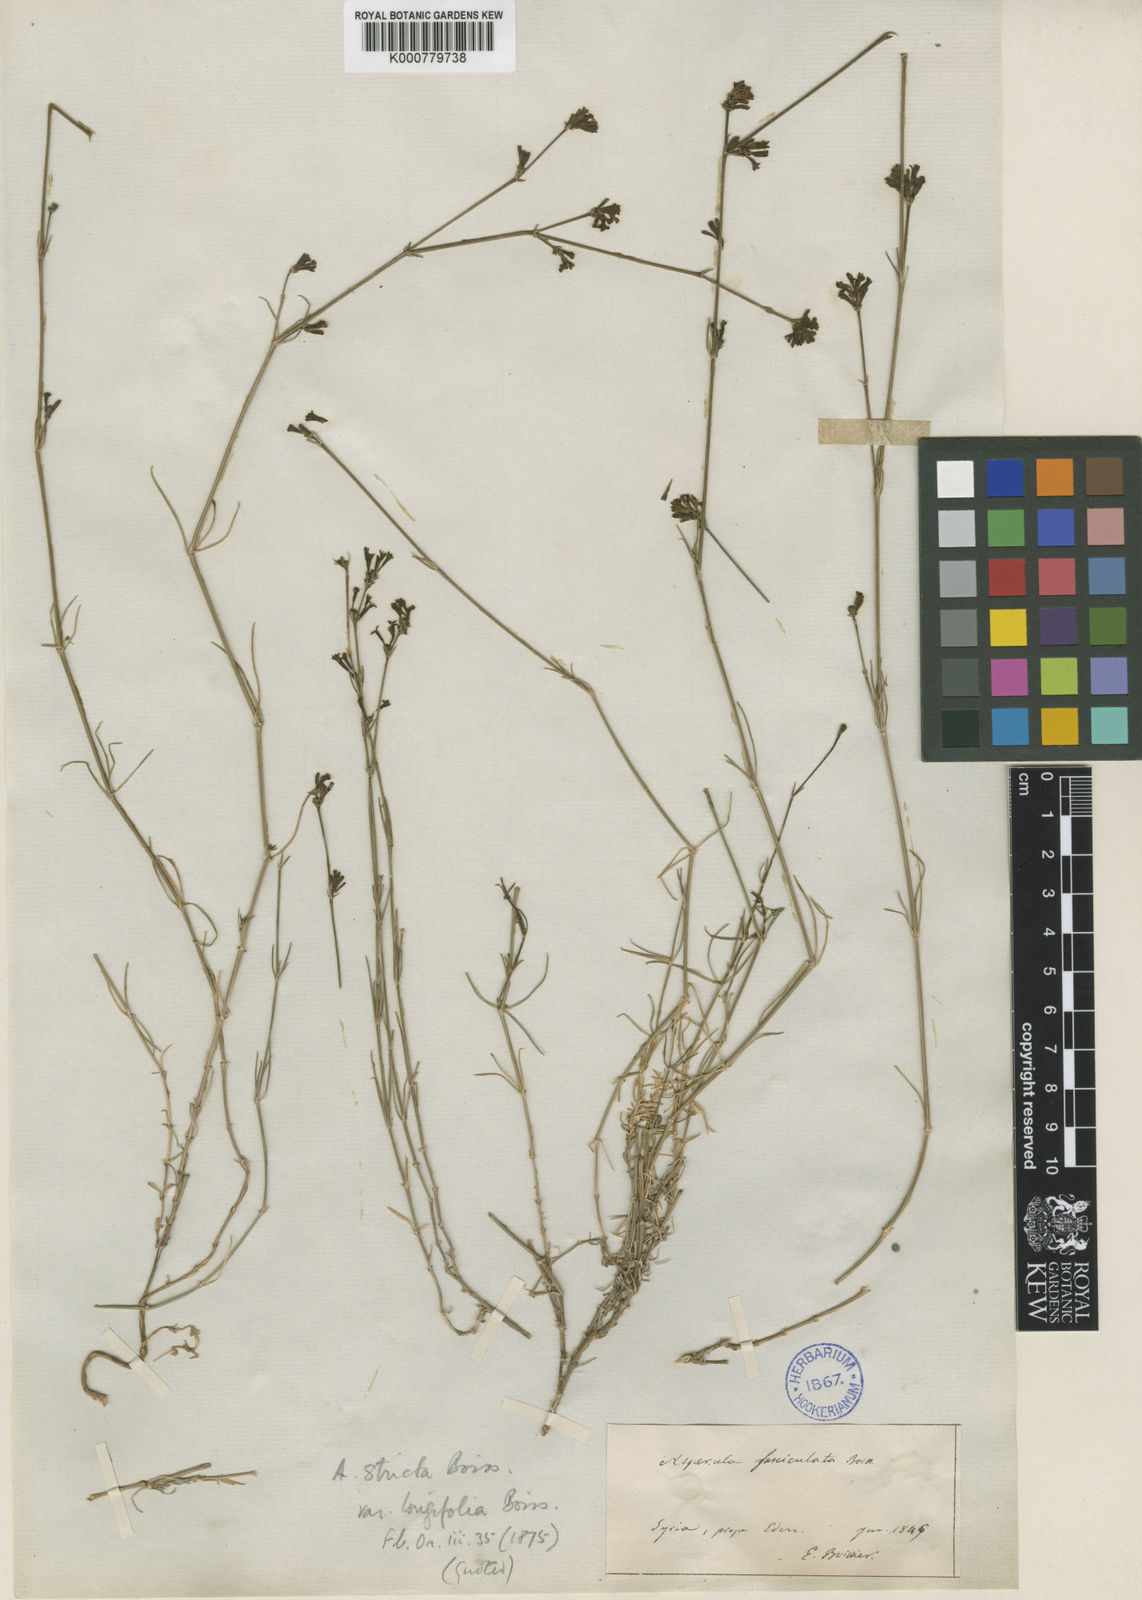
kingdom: Plantae
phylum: Tracheophyta
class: Magnoliopsida
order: Gentianales
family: Rubiaceae
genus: Cynanchica
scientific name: Cynanchica stricta
